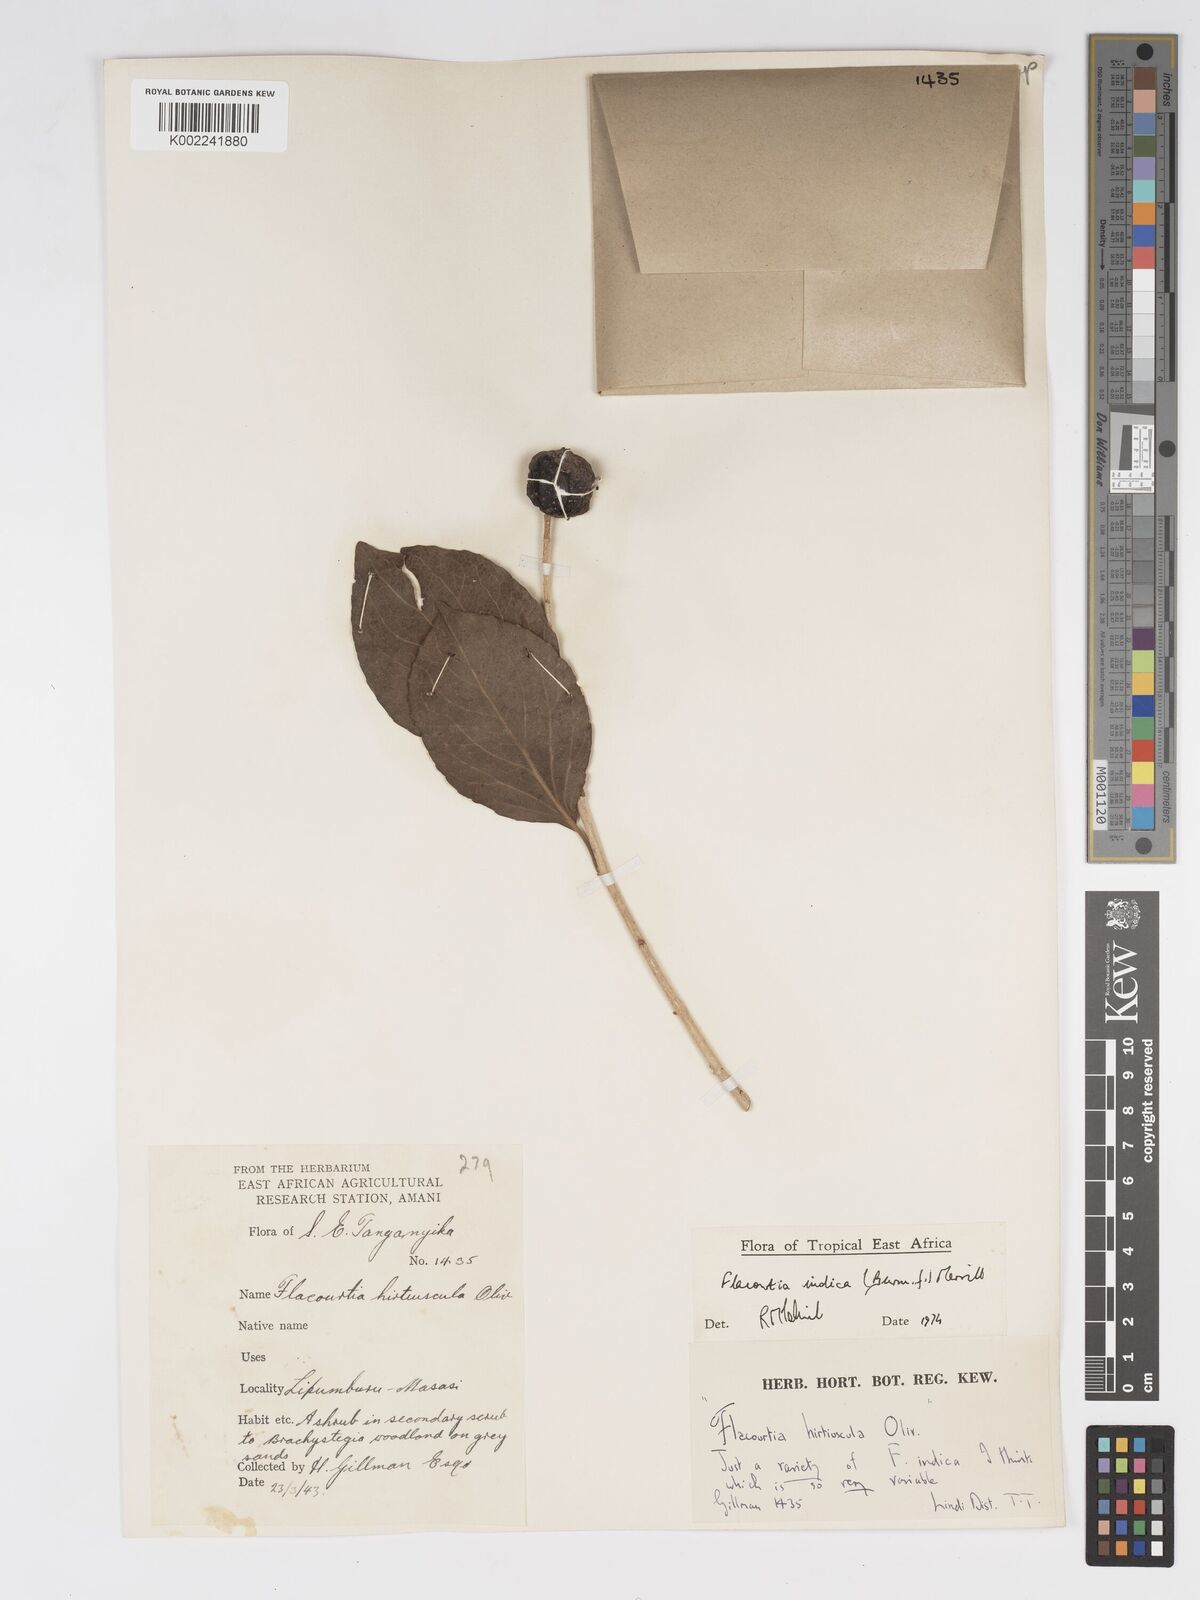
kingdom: Plantae
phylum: Tracheophyta
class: Magnoliopsida
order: Malpighiales
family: Salicaceae
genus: Flacourtia
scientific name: Flacourtia indica
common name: Governor's plum
